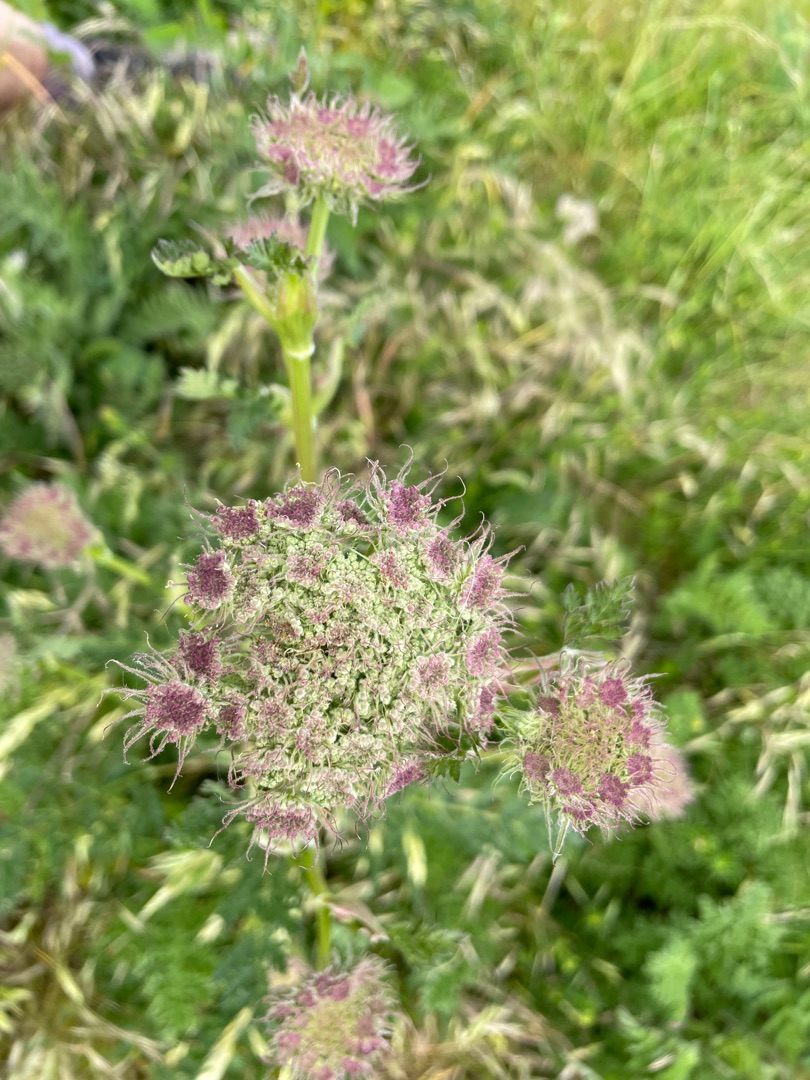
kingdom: Plantae
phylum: Tracheophyta
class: Magnoliopsida
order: Apiales
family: Apiaceae
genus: Seseli
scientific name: Seseli libanotis
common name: Hjorterod
